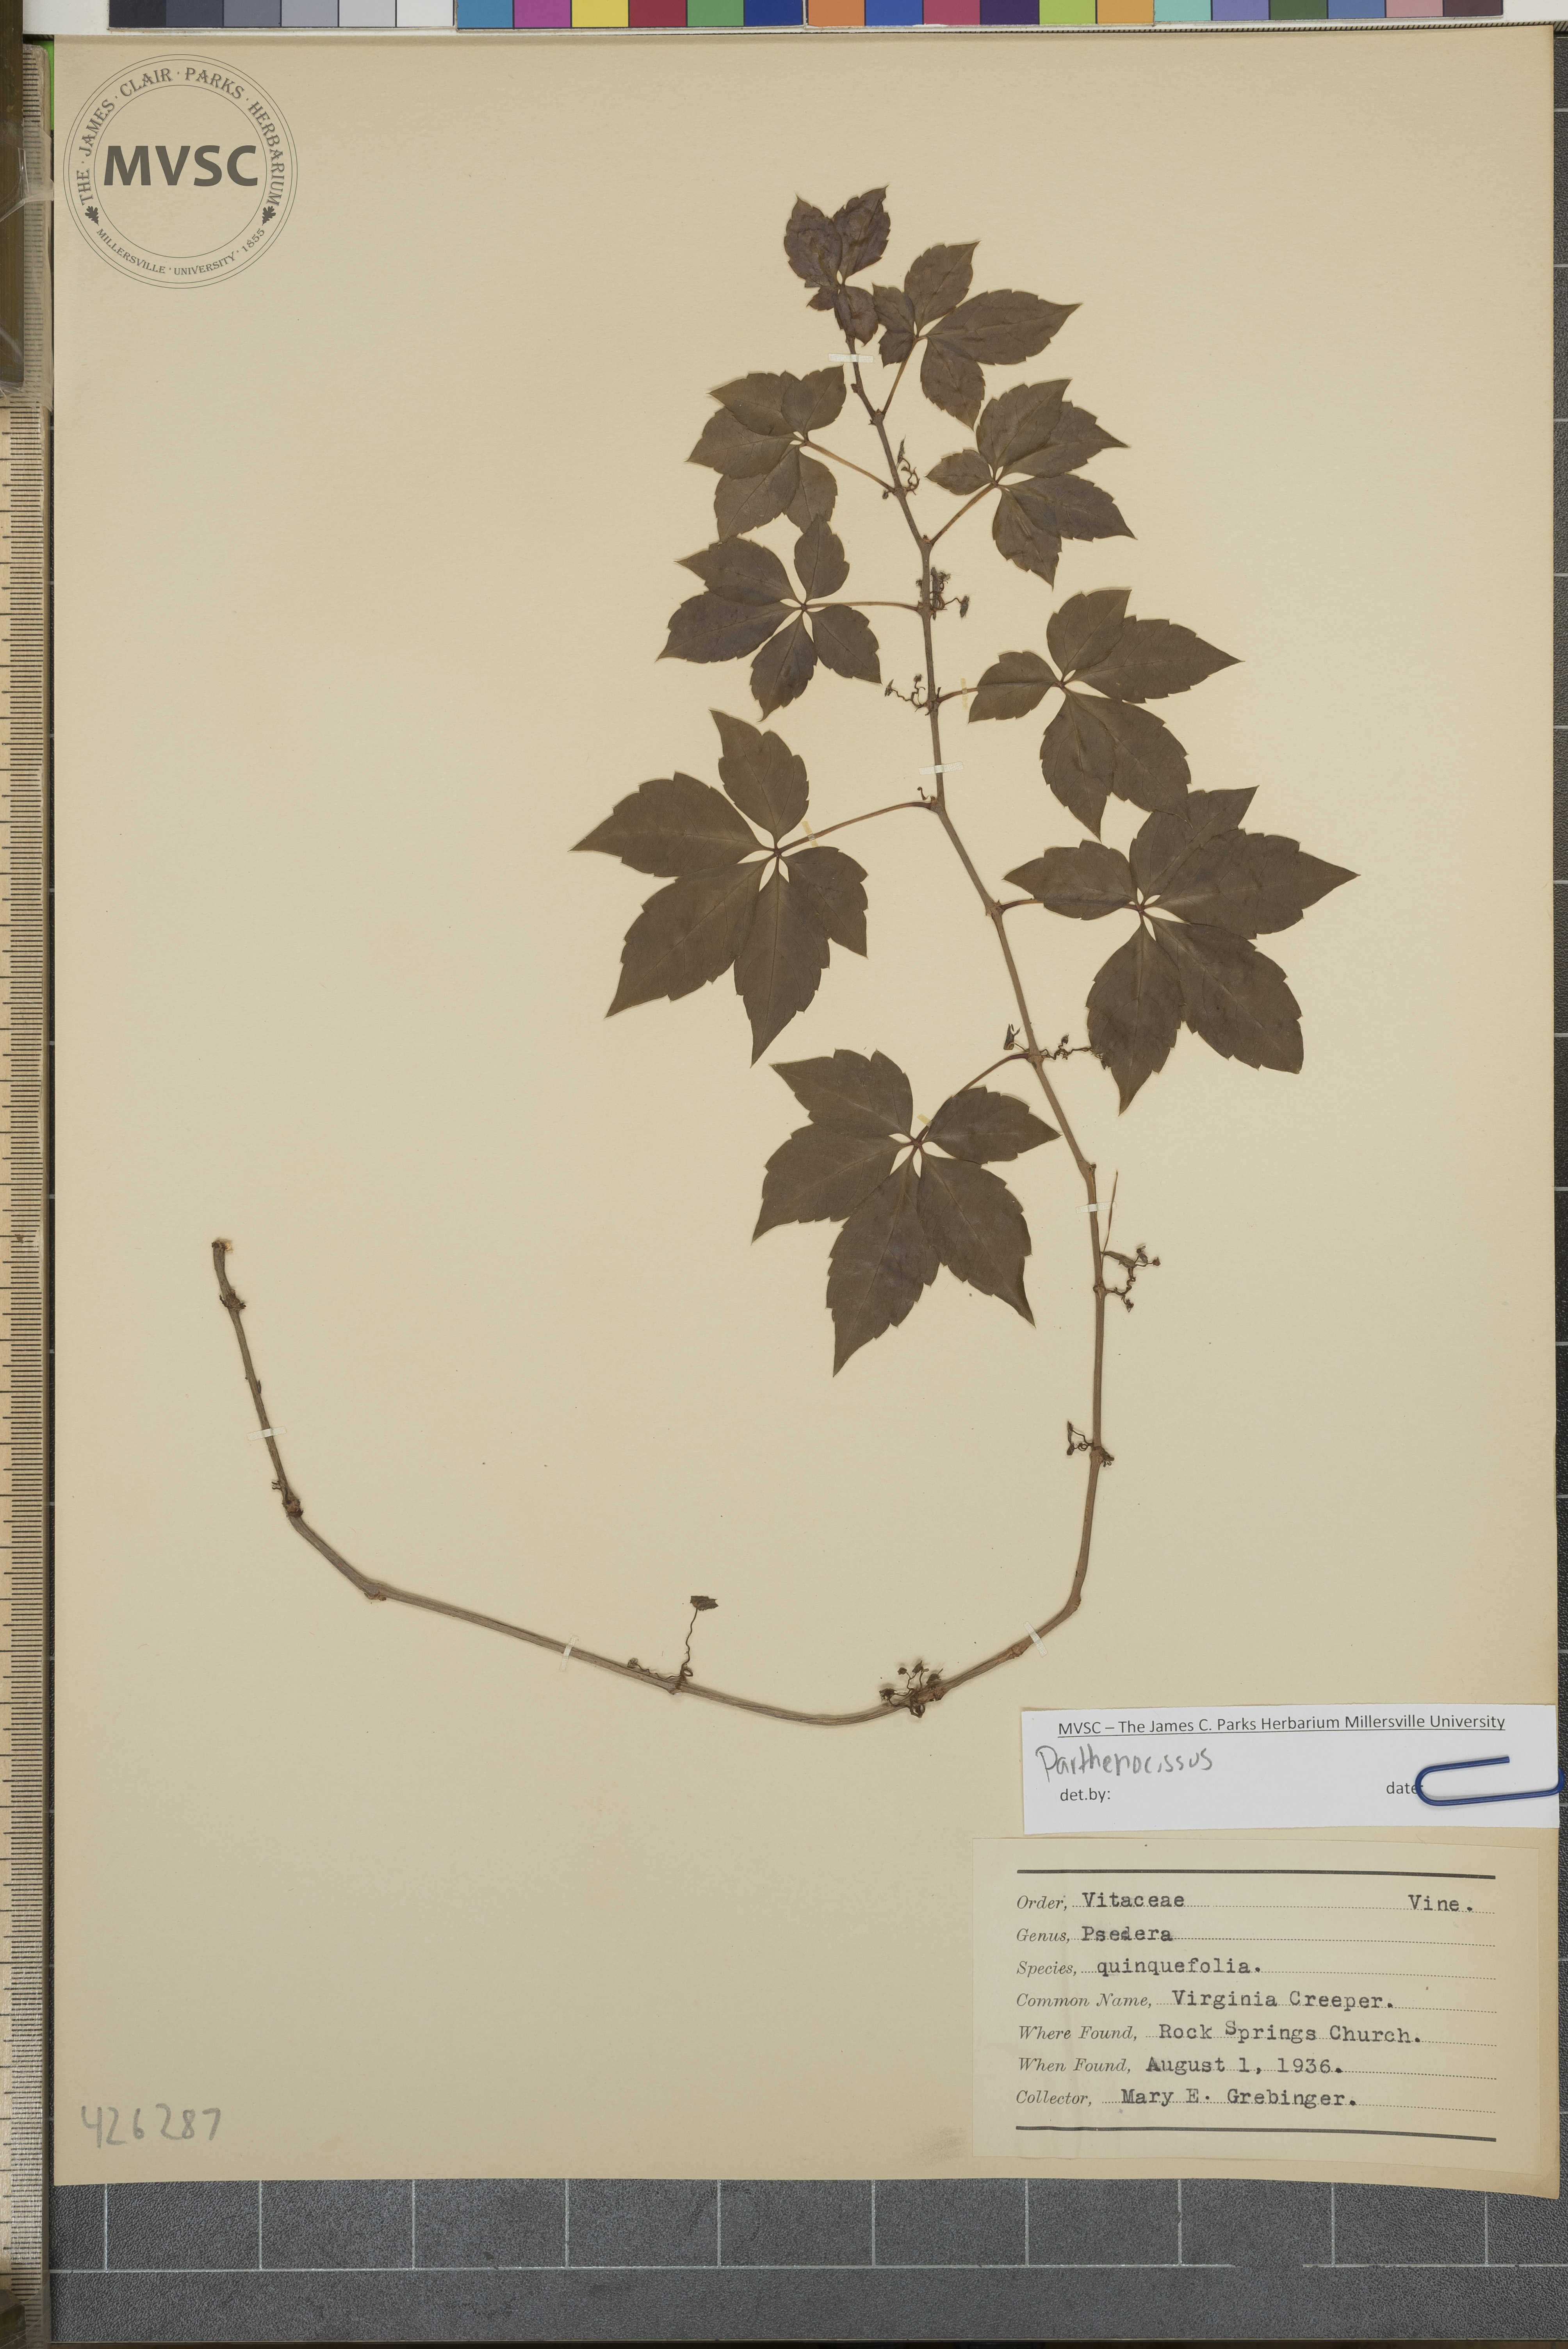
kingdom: Plantae
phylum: Tracheophyta
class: Magnoliopsida
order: Vitales
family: Vitaceae
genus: Parthenocissus
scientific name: Parthenocissus quinquefolia
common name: Virginia creeper
